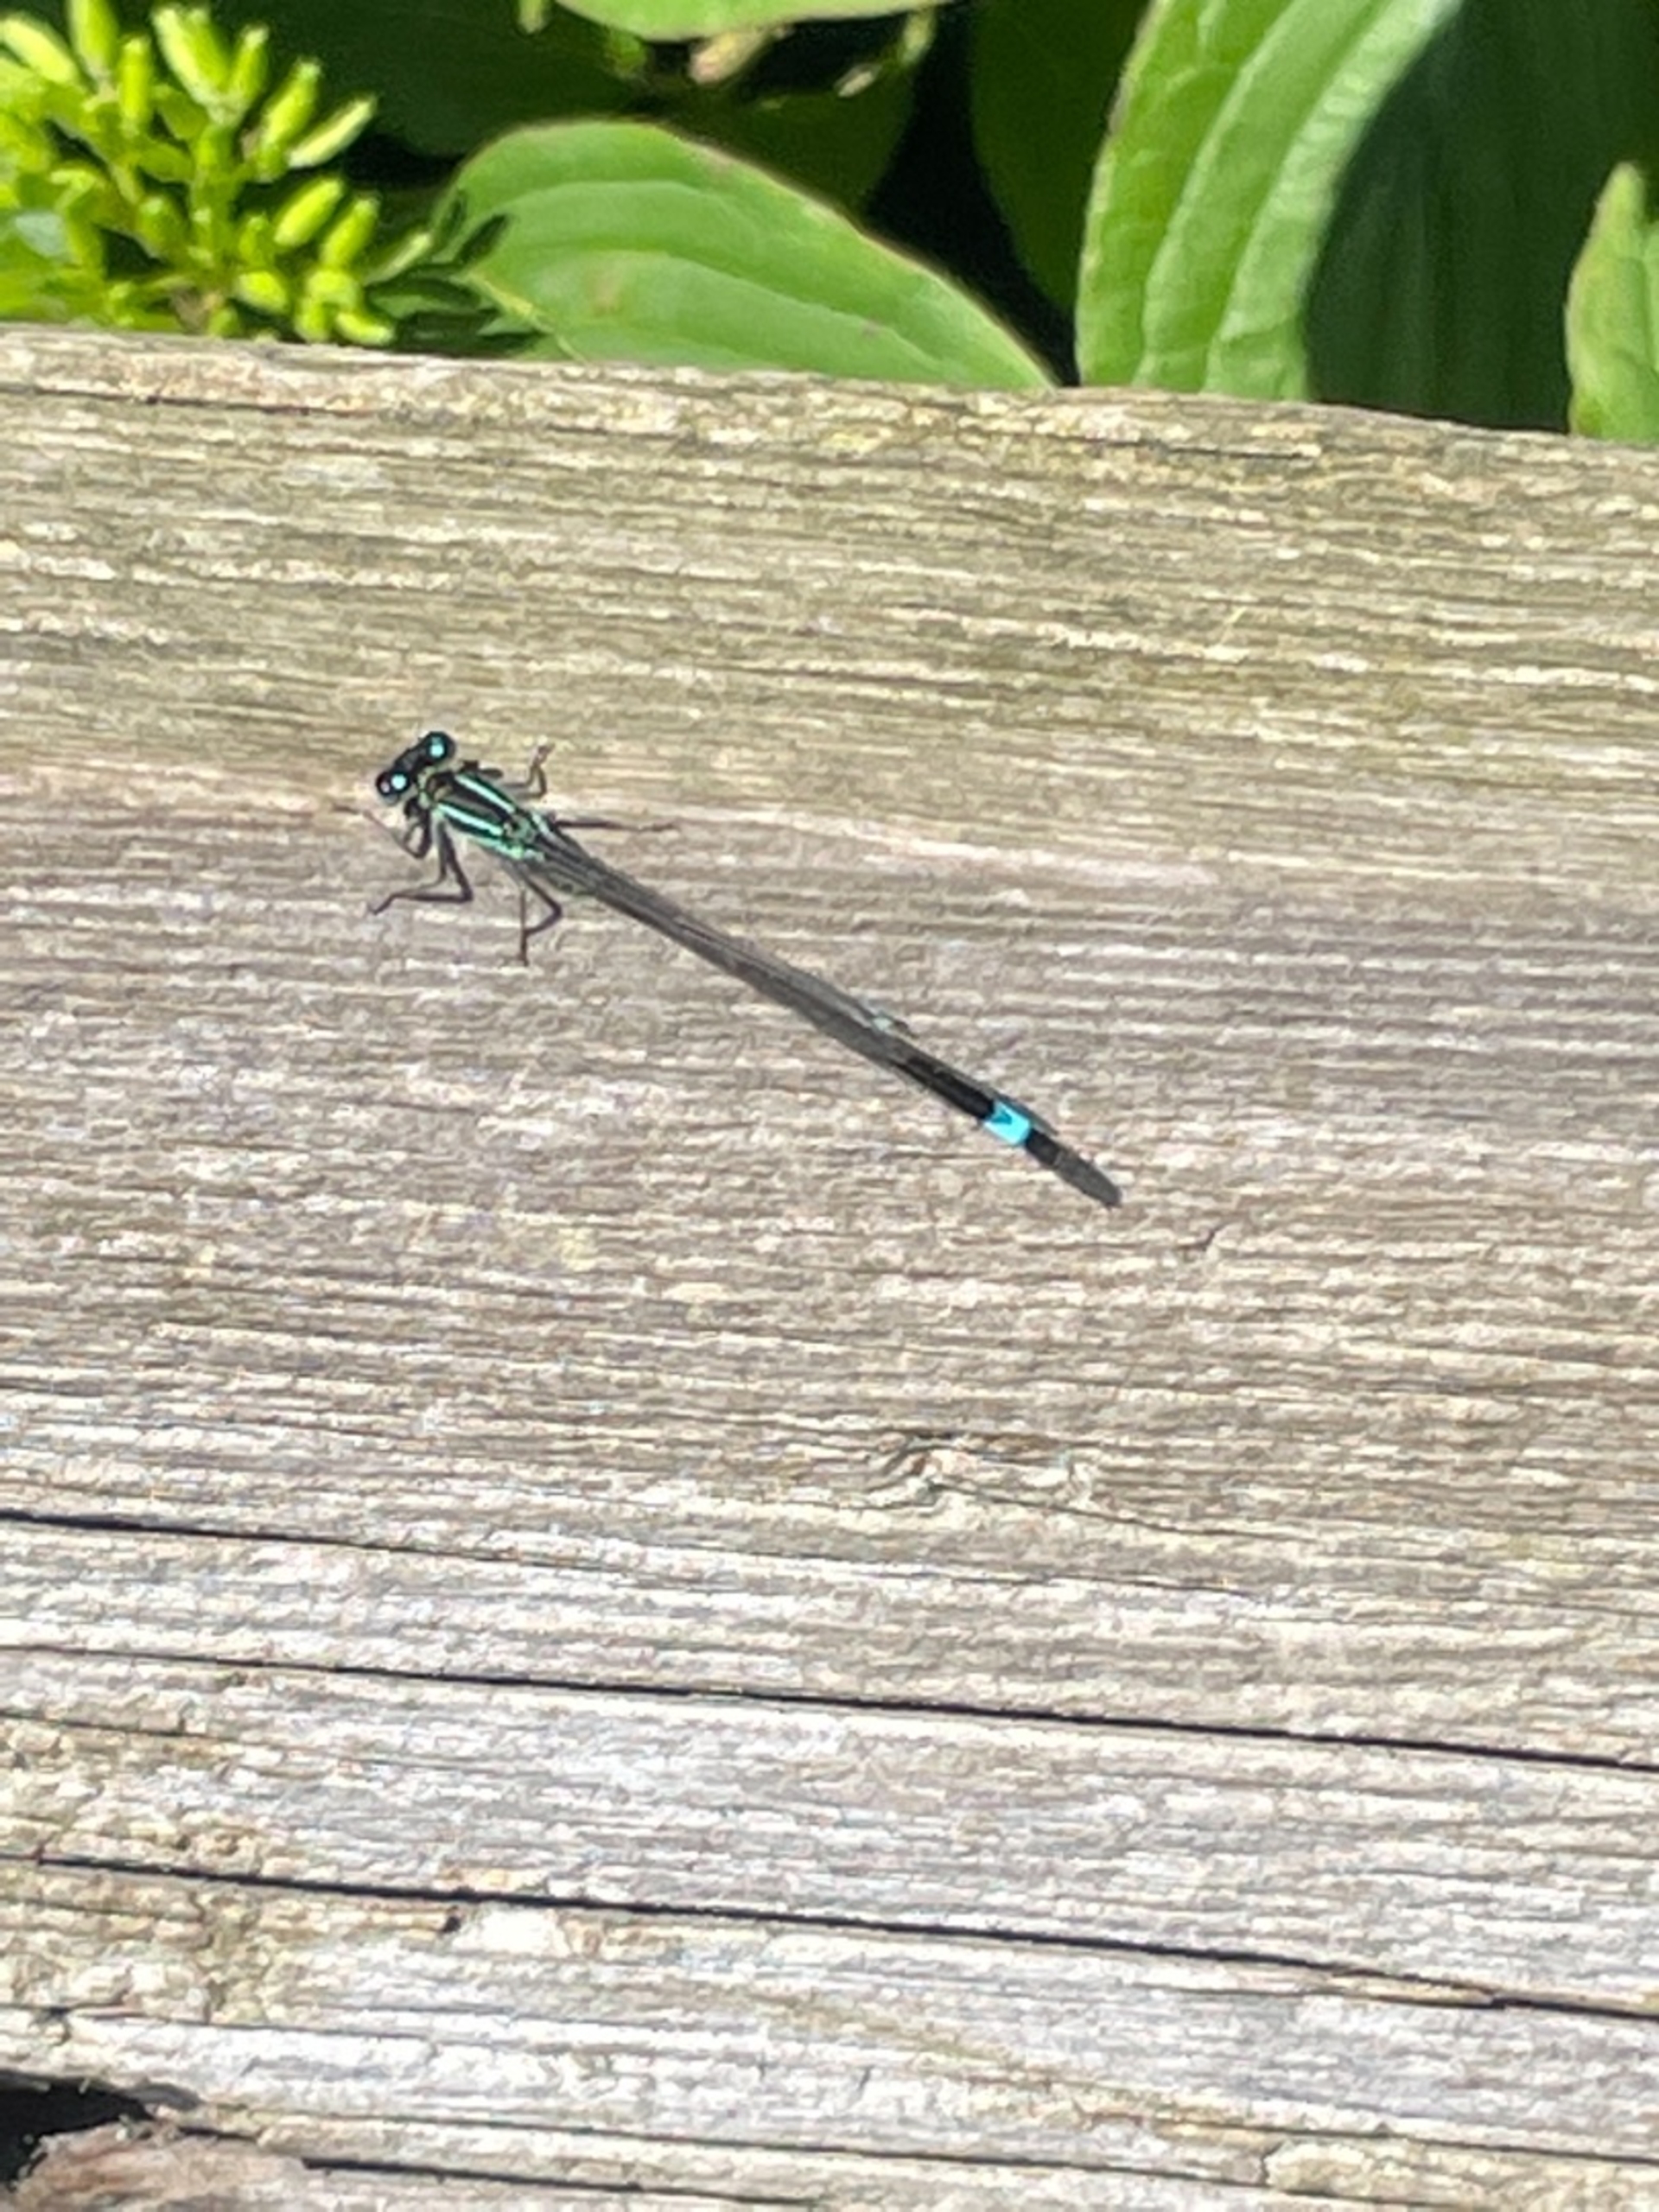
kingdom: Animalia
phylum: Arthropoda
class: Insecta
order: Odonata
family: Coenagrionidae
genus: Ischnura
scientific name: Ischnura elegans
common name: Stor farvevandnymfe
